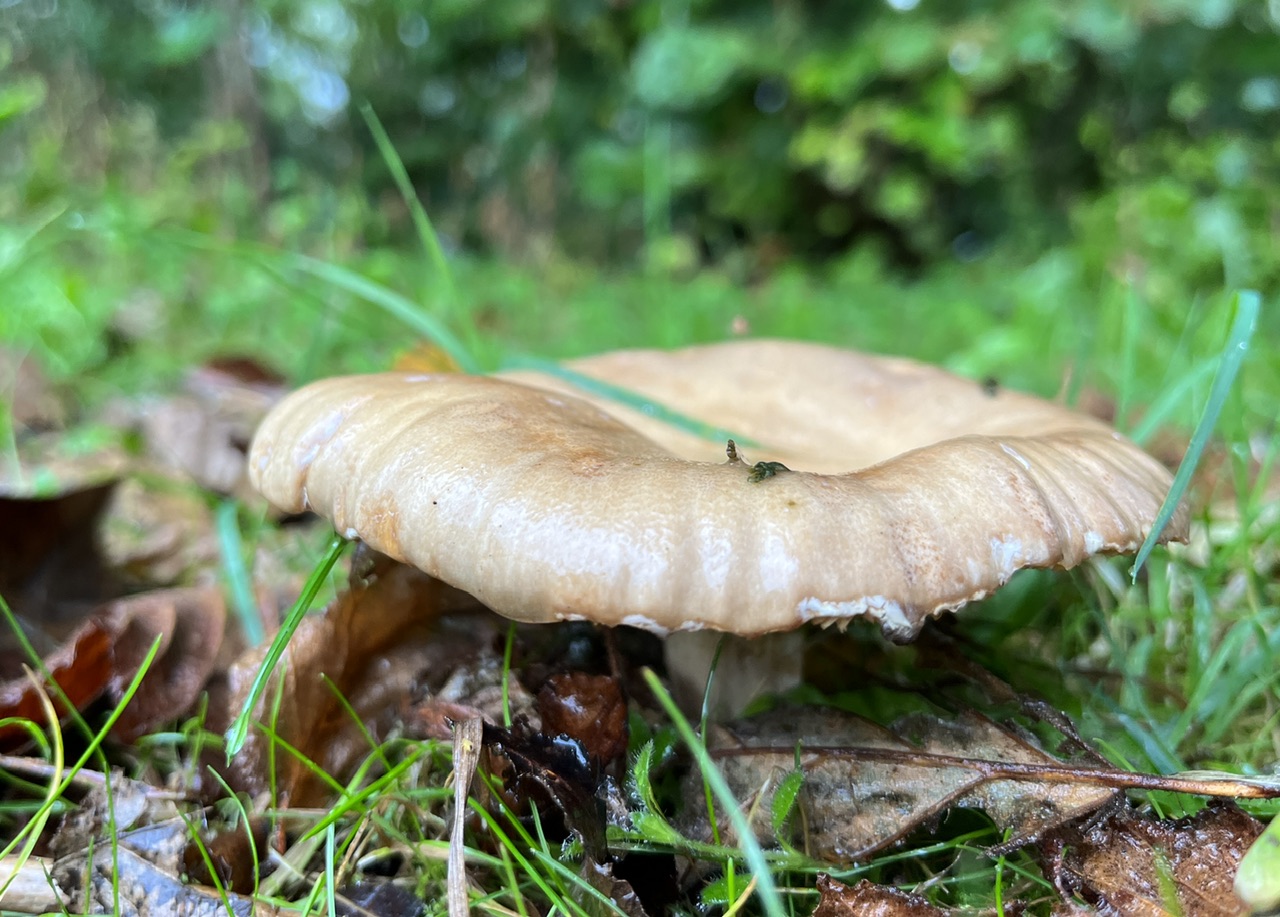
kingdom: Fungi
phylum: Basidiomycota
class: Agaricomycetes
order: Russulales
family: Russulaceae
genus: Lactarius
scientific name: Lactarius pyrogalus
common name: hassel-mælkehat
